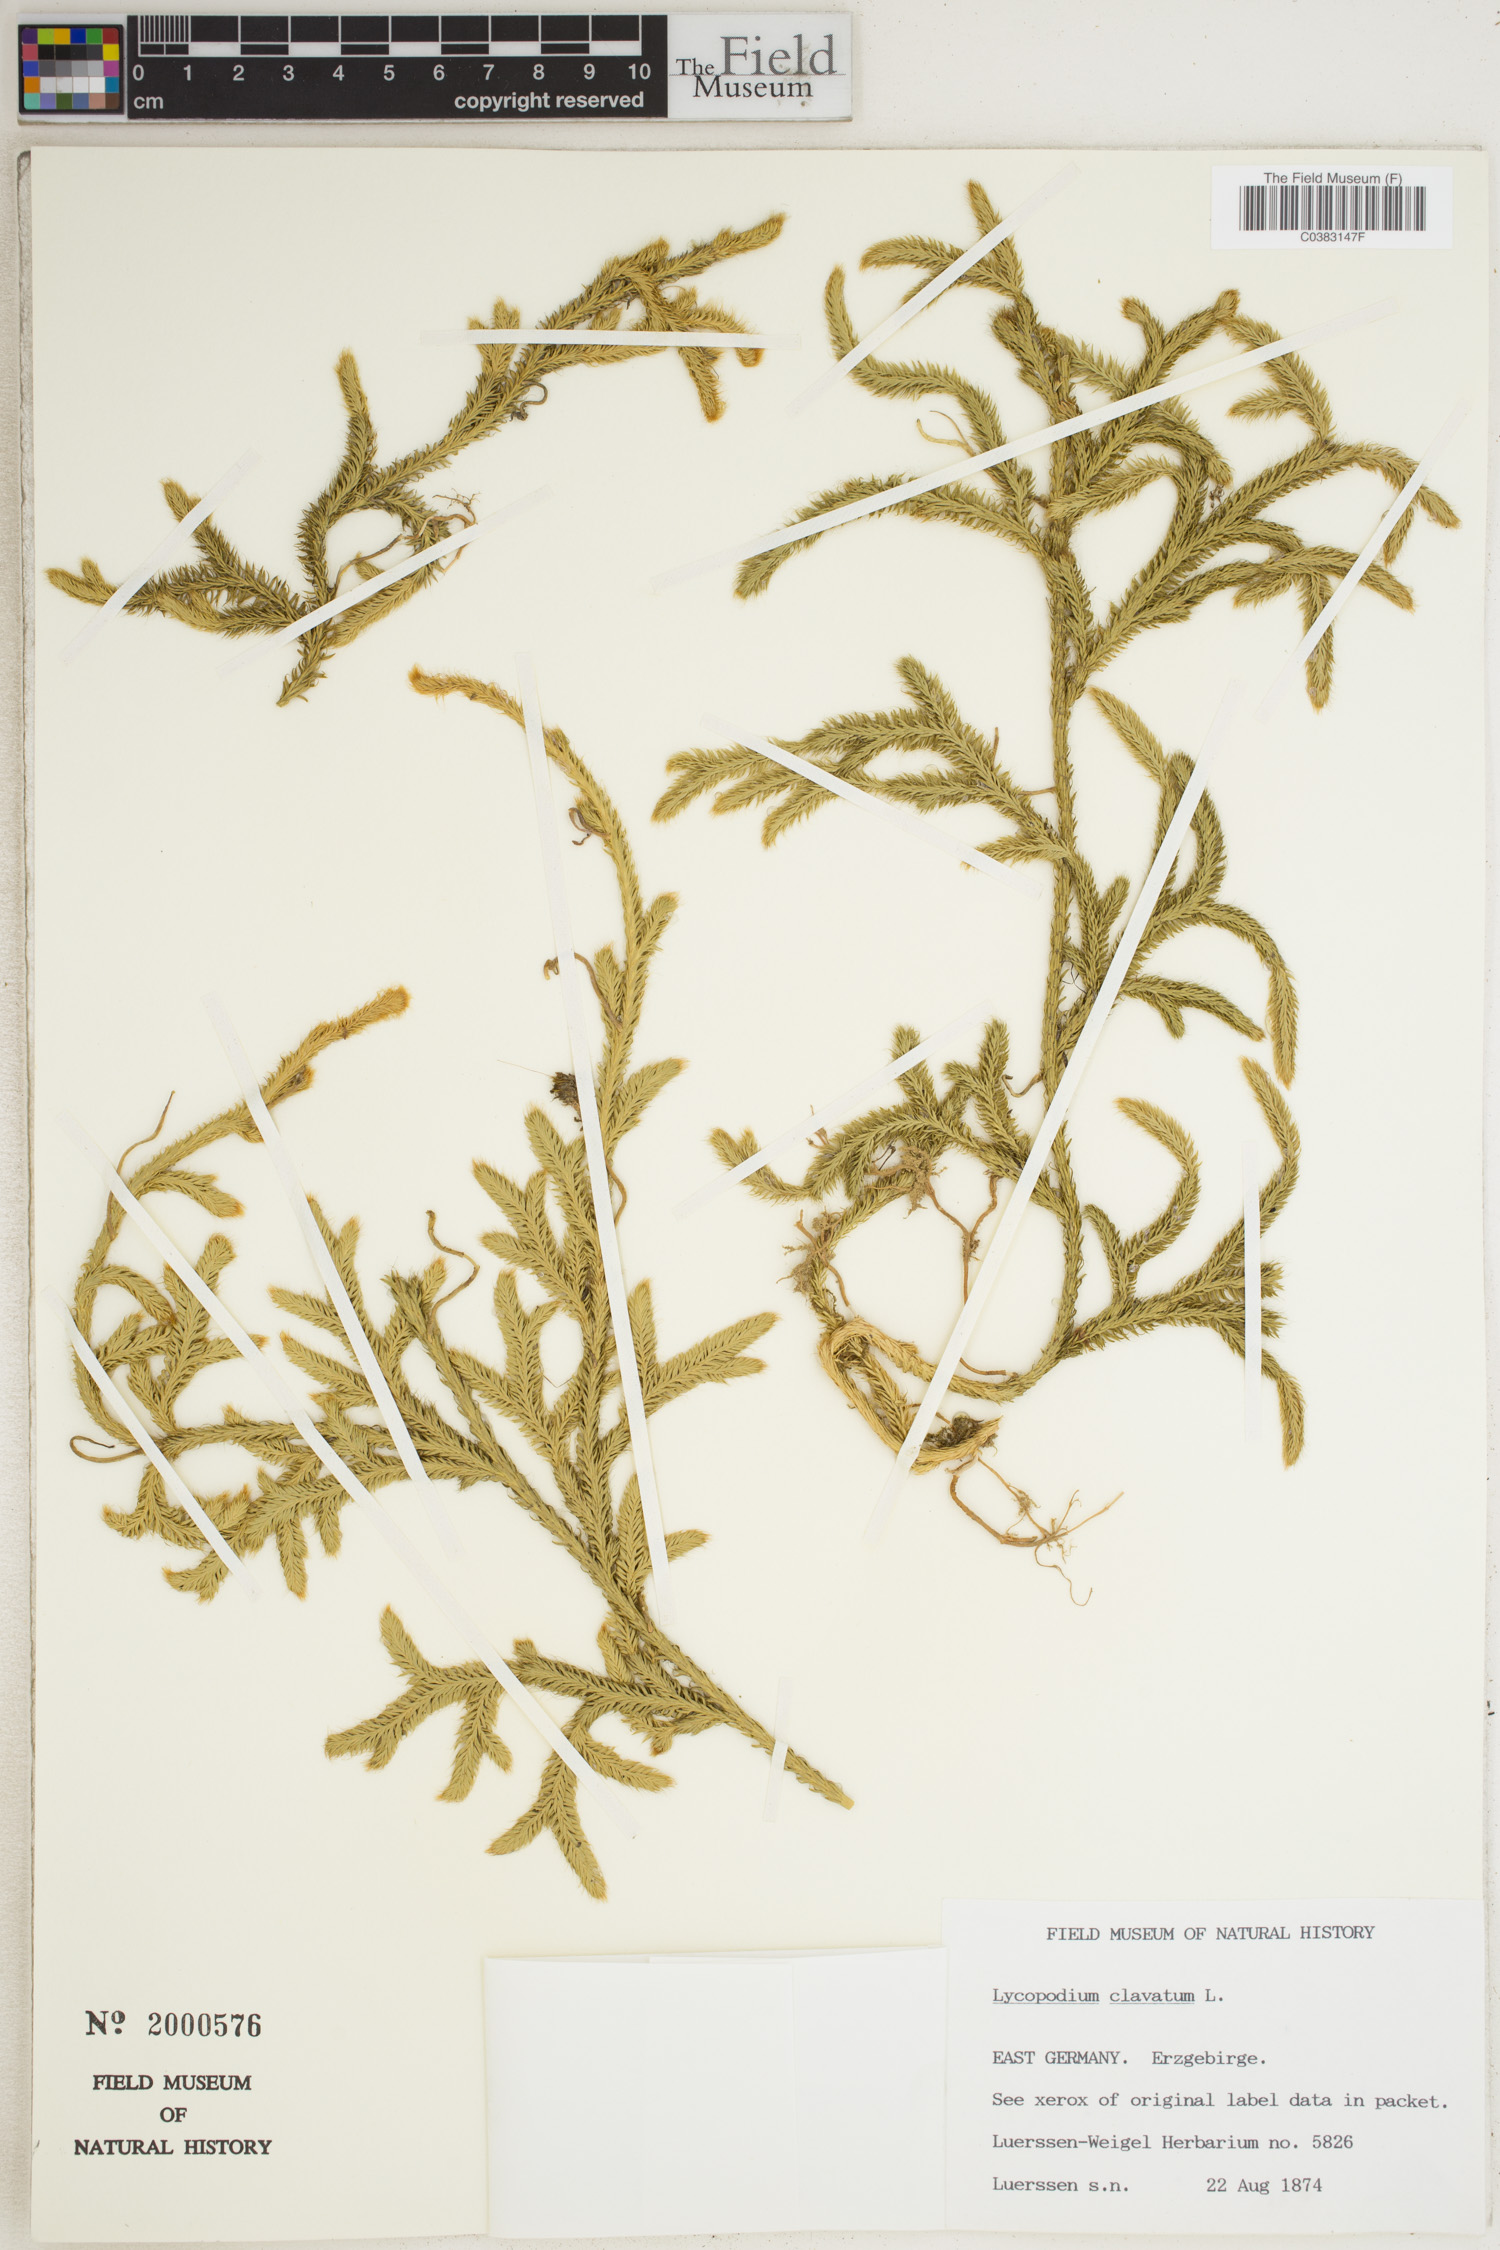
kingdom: Plantae
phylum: Tracheophyta
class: Lycopodiopsida
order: Lycopodiales
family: Lycopodiaceae
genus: Lycopodium
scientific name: Lycopodium clavatum
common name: Stag's-horn clubmoss
